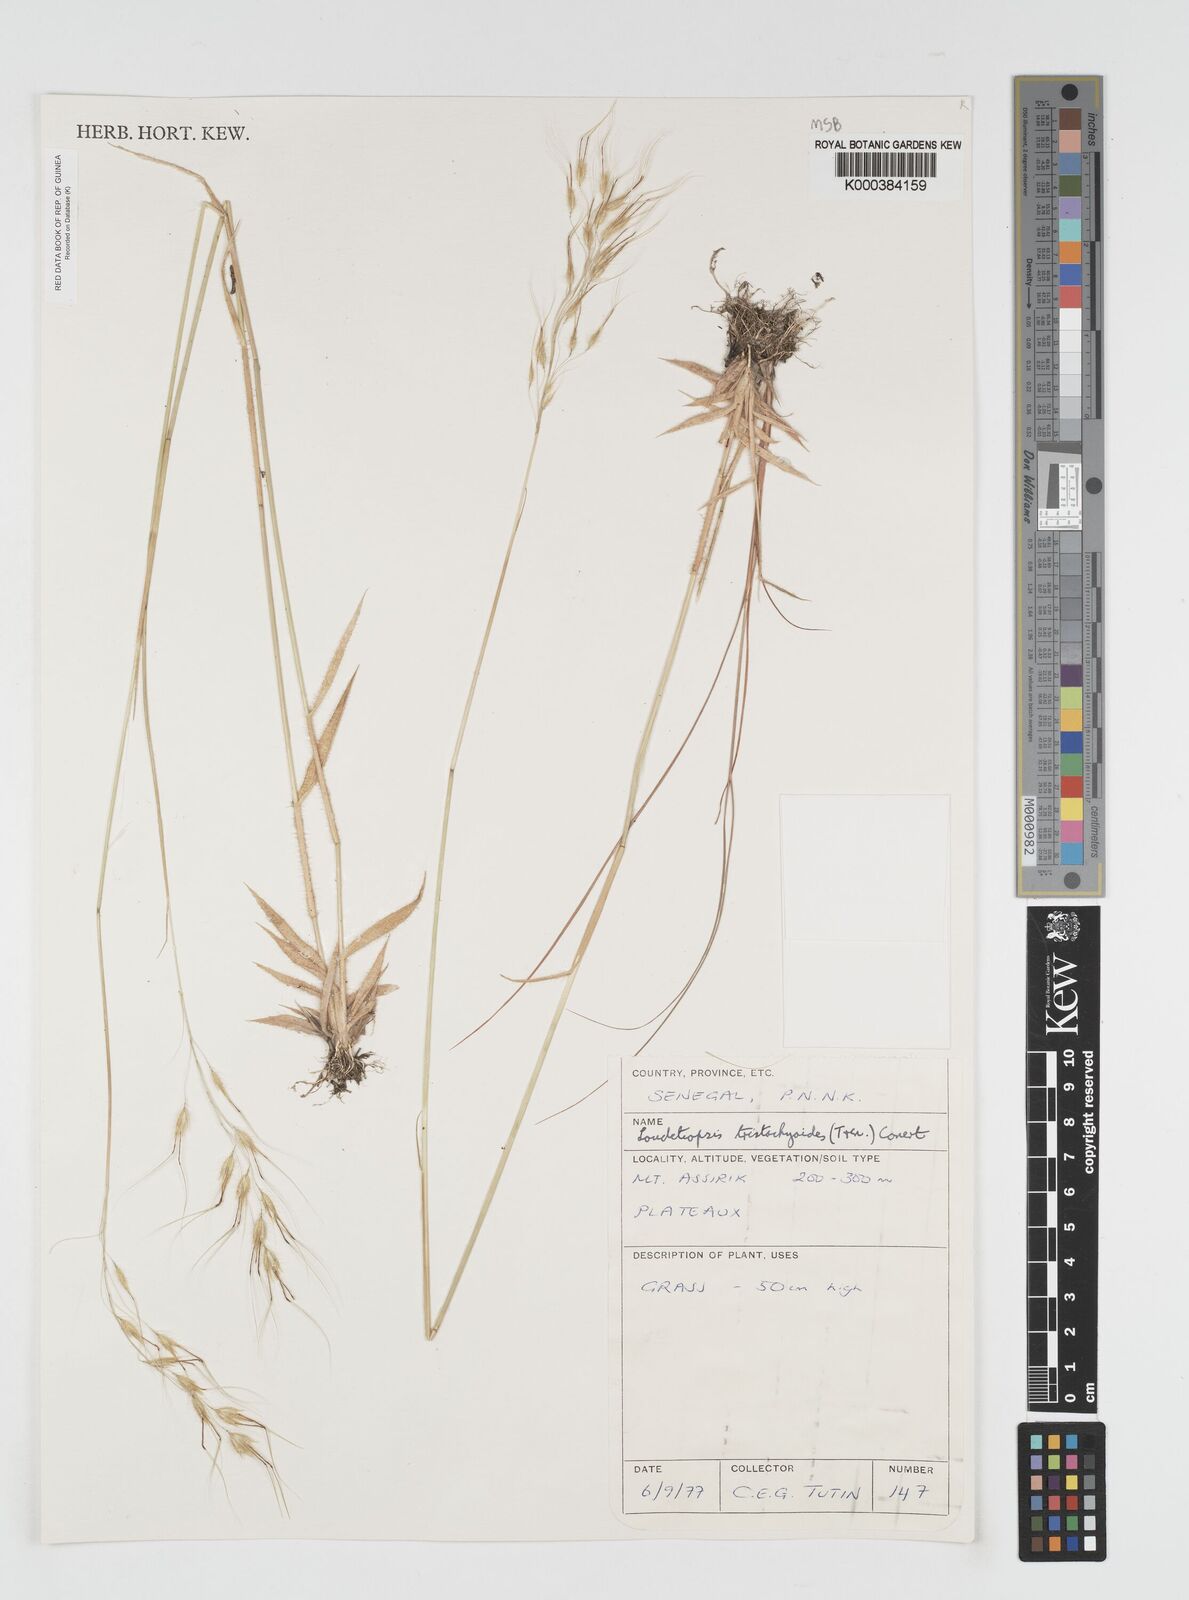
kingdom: Plantae
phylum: Tracheophyta
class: Liliopsida
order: Poales
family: Poaceae
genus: Dilophotriche
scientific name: Dilophotriche
